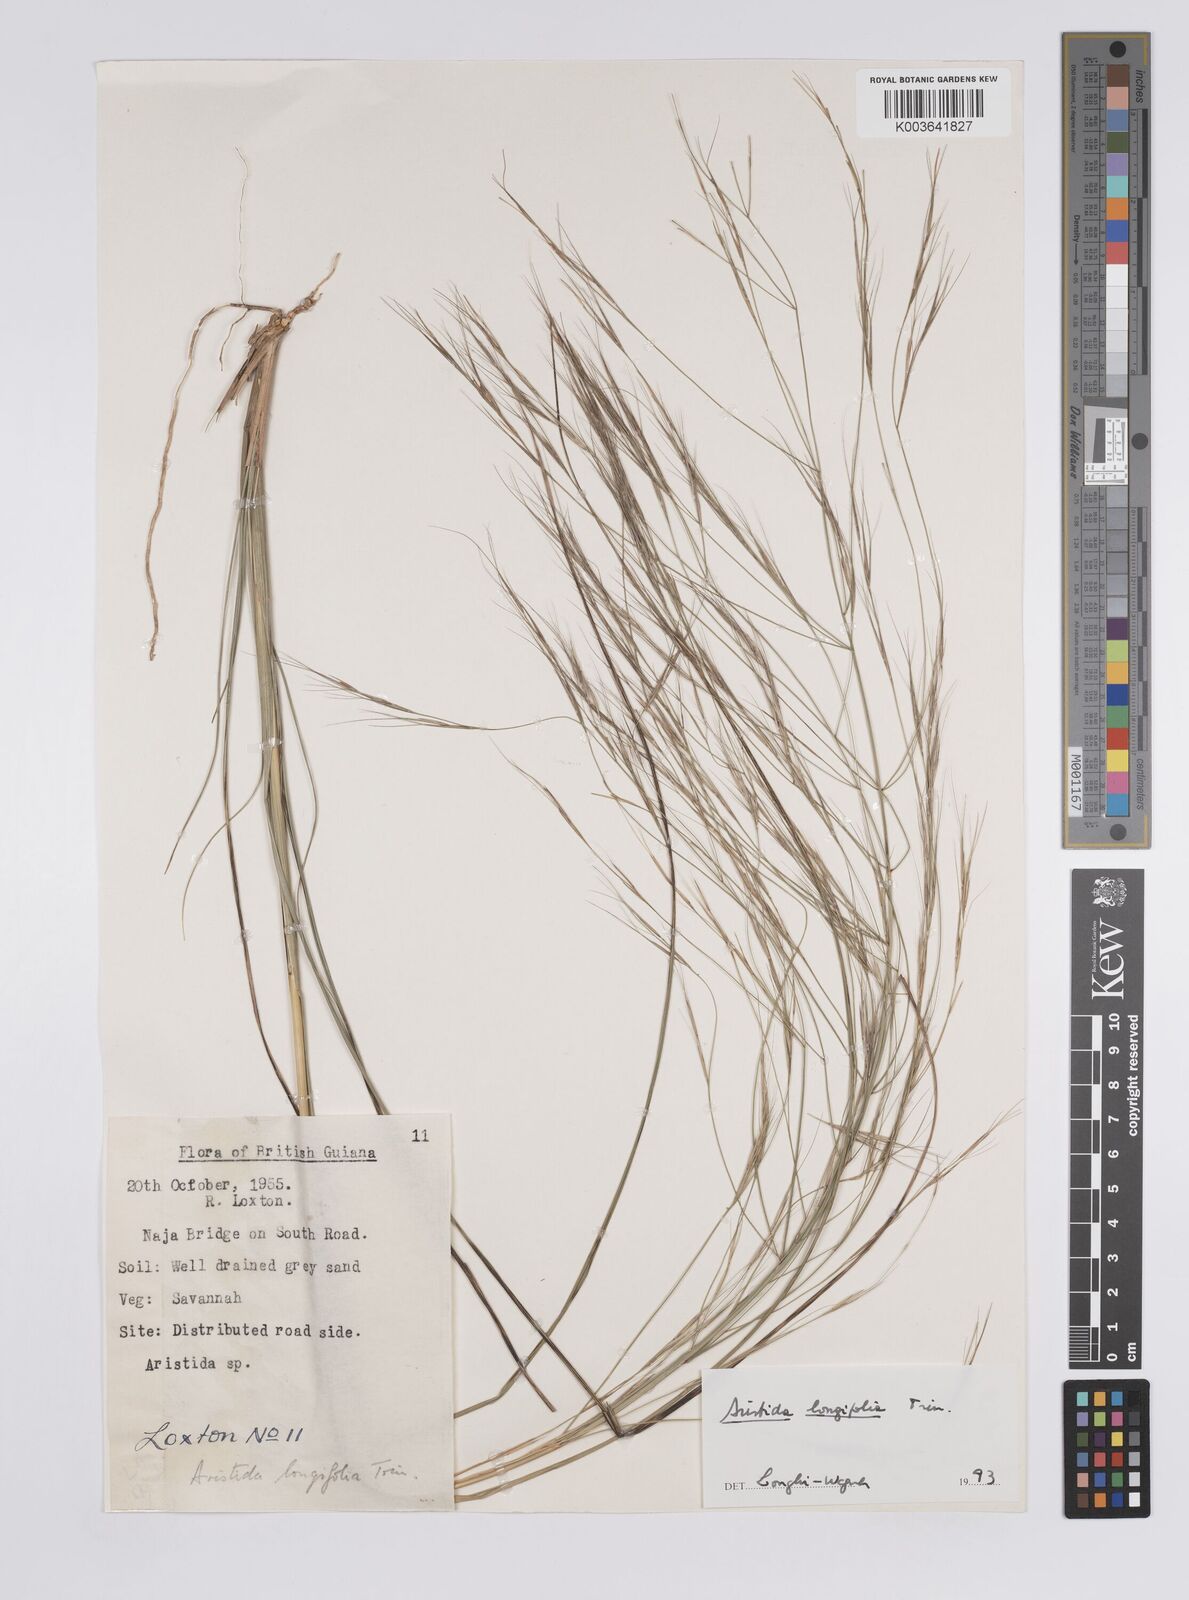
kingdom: Plantae
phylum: Tracheophyta
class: Liliopsida
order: Poales
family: Poaceae
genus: Aristida
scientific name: Aristida longifolia
